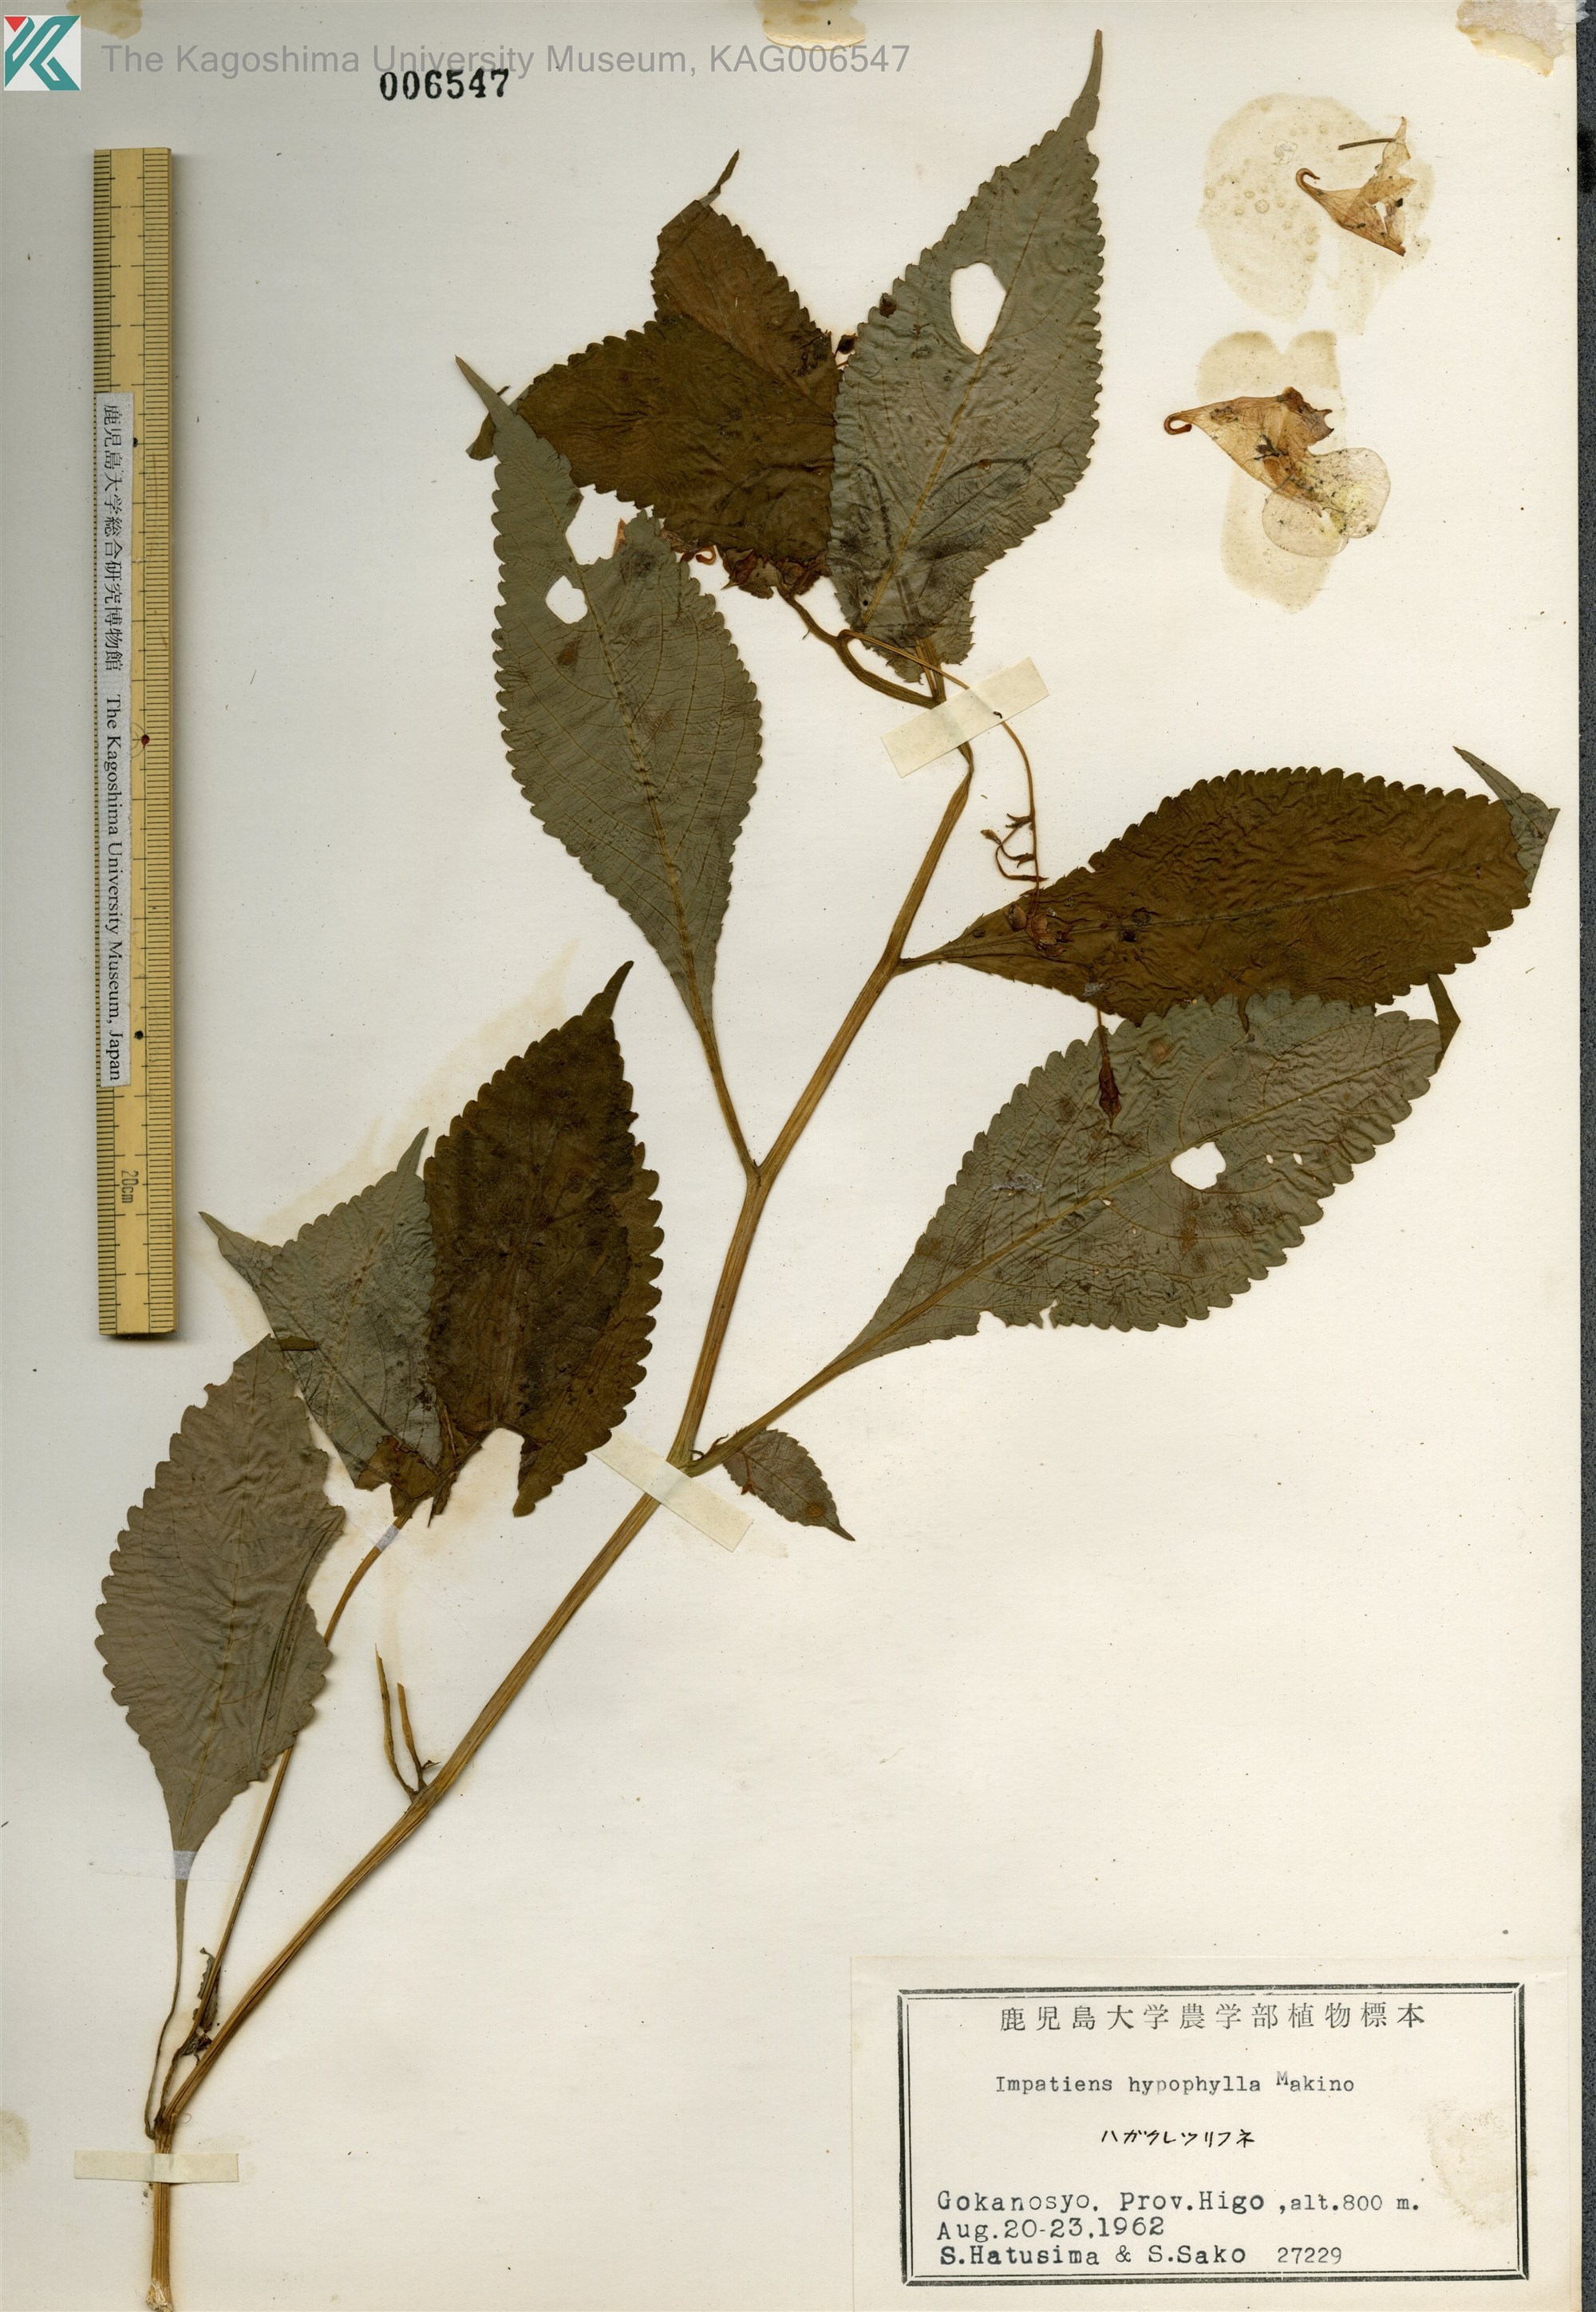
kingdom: Plantae
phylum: Tracheophyta
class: Magnoliopsida
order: Ericales
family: Balsaminaceae
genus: Impatiens
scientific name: Impatiens hypophylla
